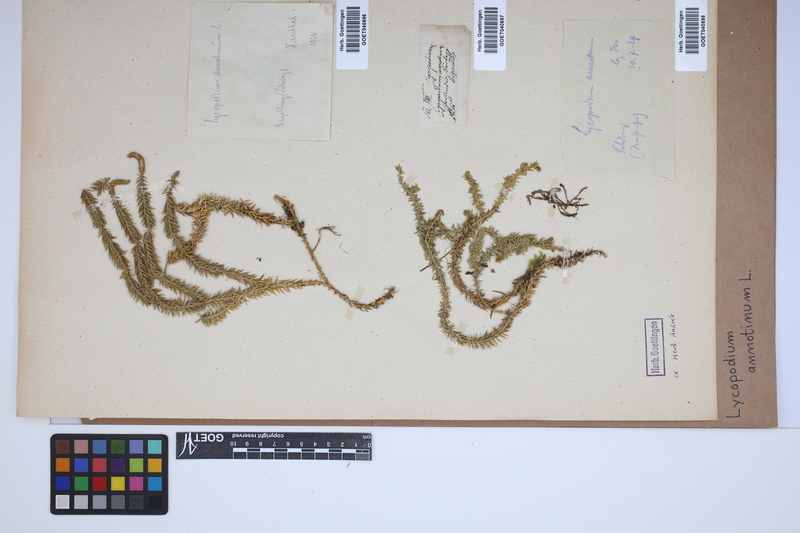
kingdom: Plantae
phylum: Tracheophyta
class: Lycopodiopsida
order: Lycopodiales
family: Lycopodiaceae
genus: Spinulum
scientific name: Spinulum annotinum
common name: Interrupted club-moss
